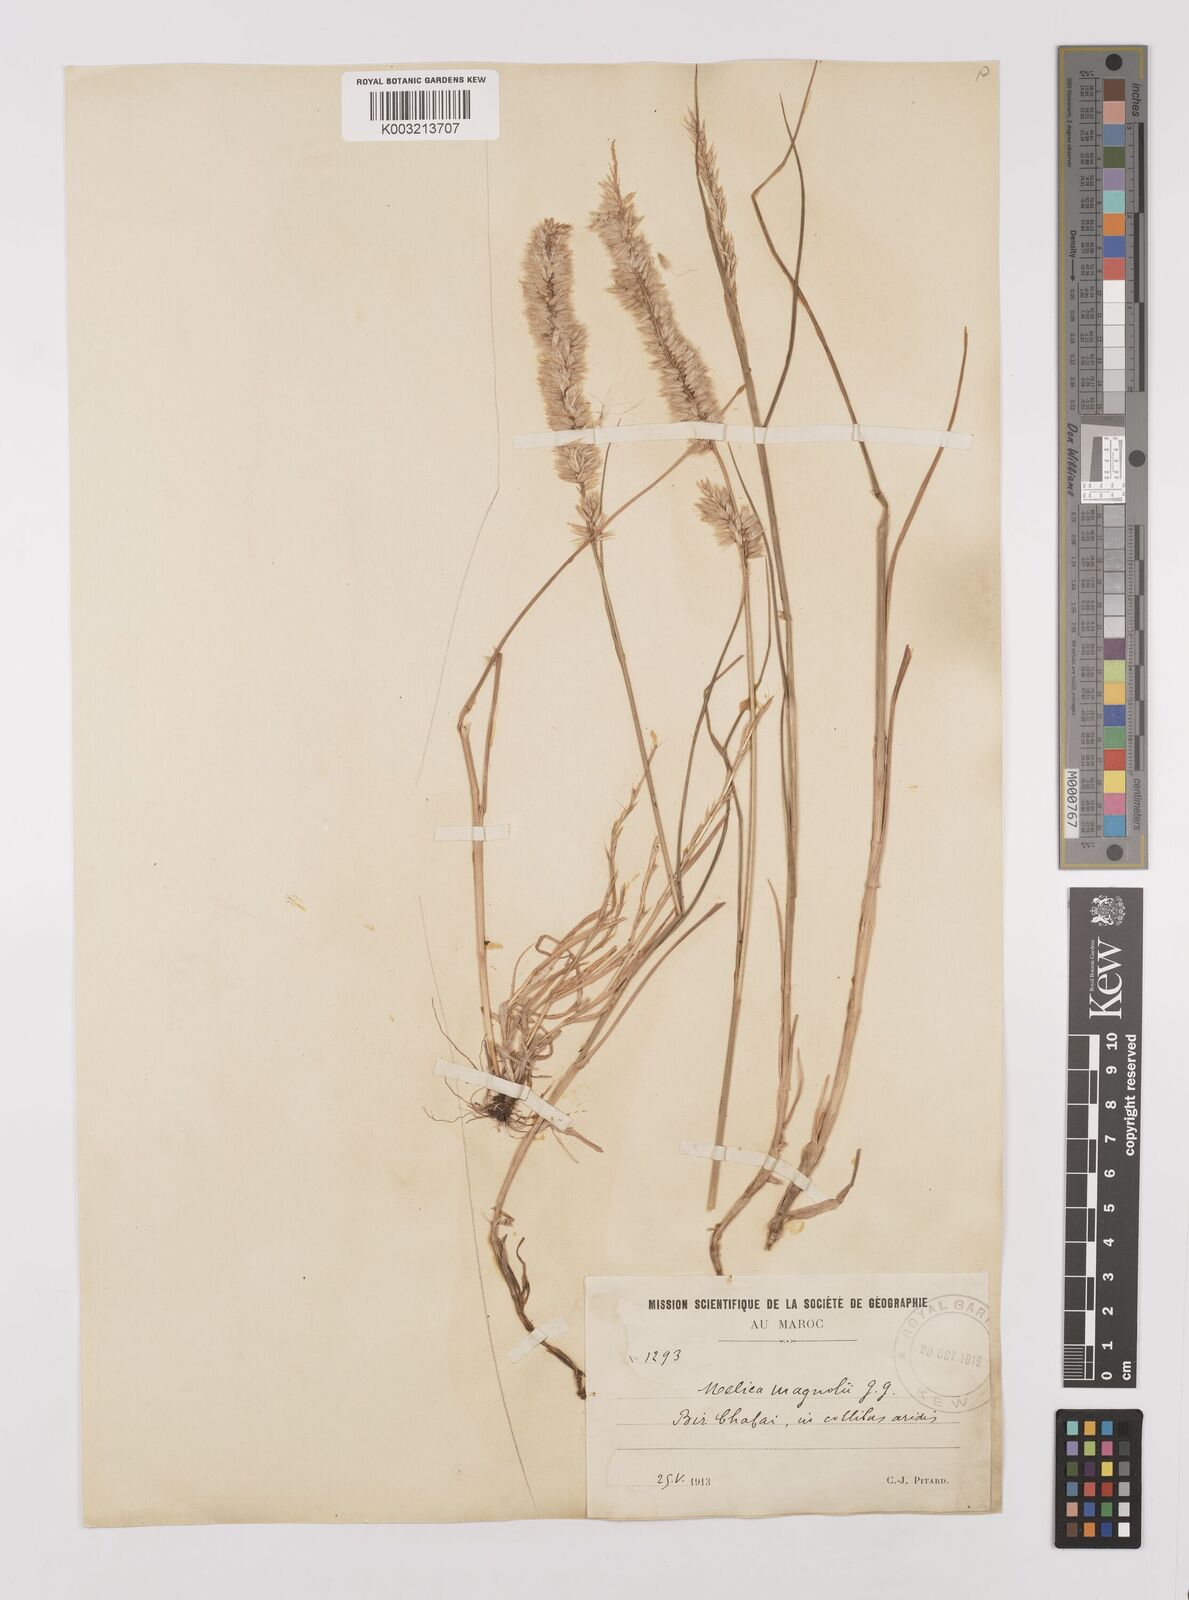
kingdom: Plantae
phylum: Tracheophyta
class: Liliopsida
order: Poales
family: Poaceae
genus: Melica
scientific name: Melica violacea
